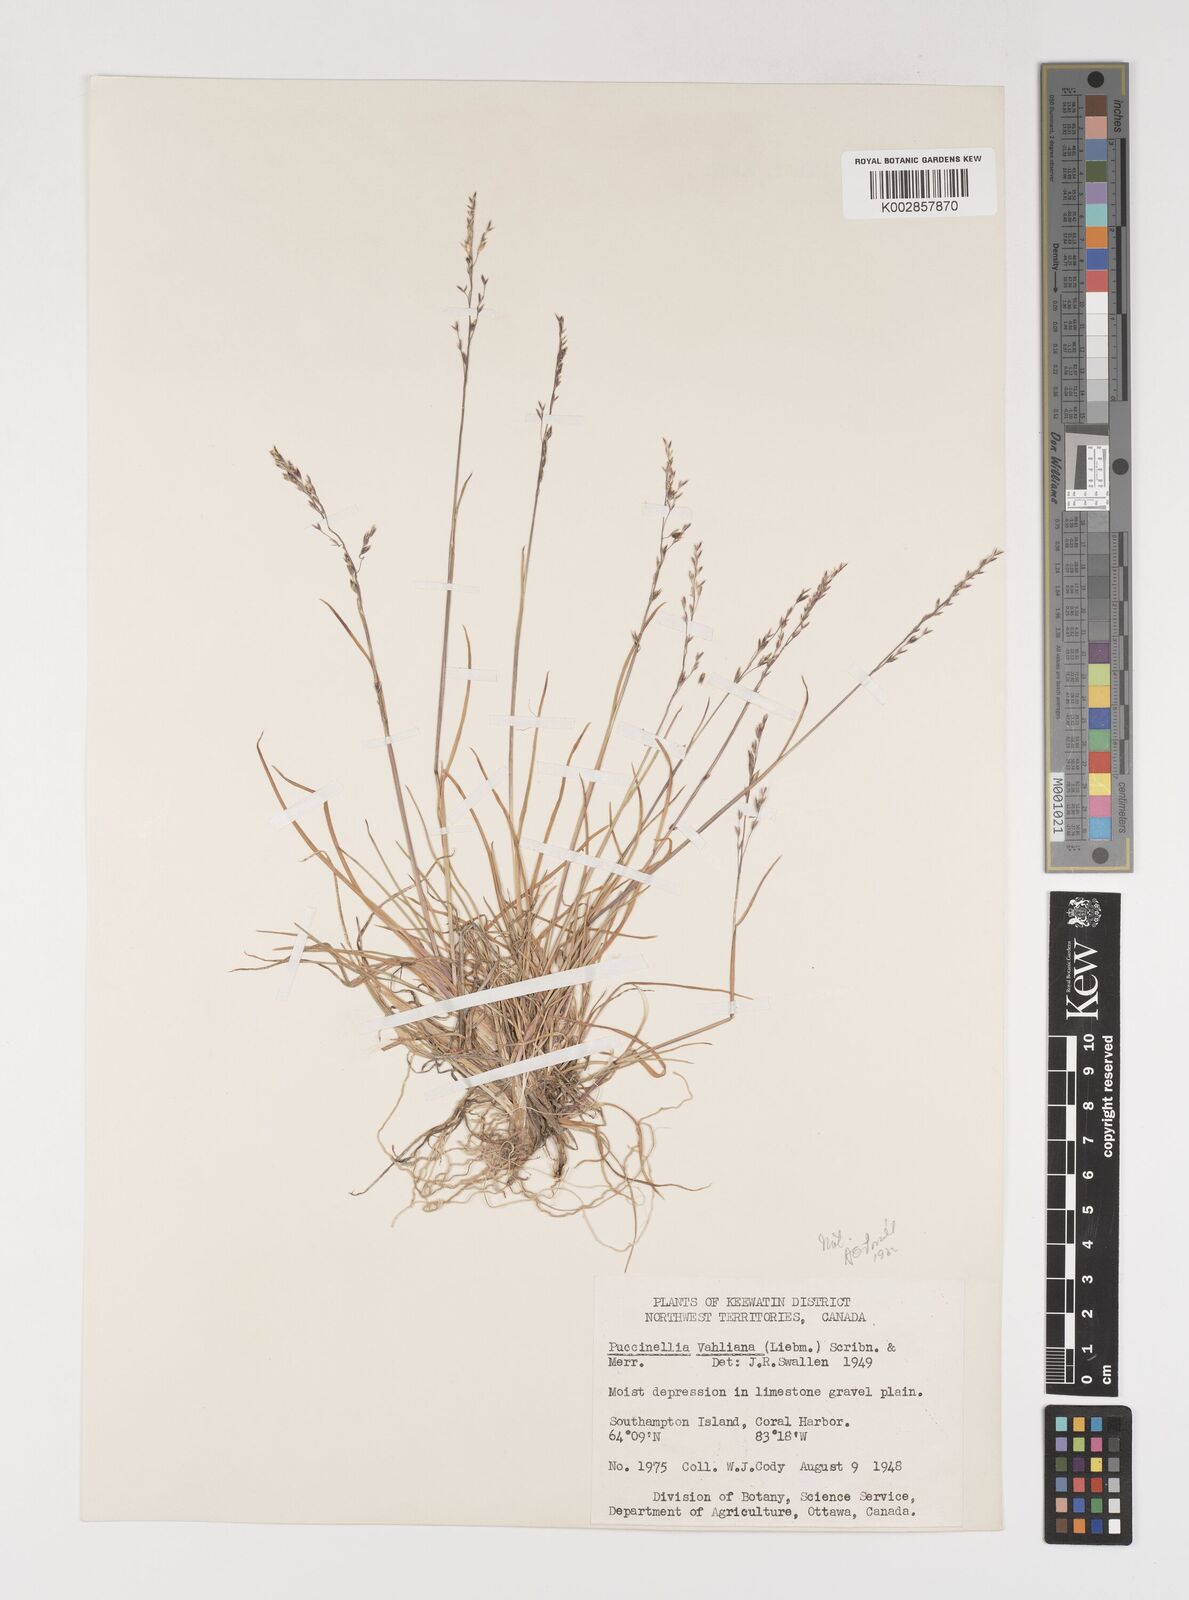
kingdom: Plantae
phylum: Tracheophyta
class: Liliopsida
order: Poales
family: Poaceae
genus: Puccinellia
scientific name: Puccinellia vahliana
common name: Vahl's alkaligrass
